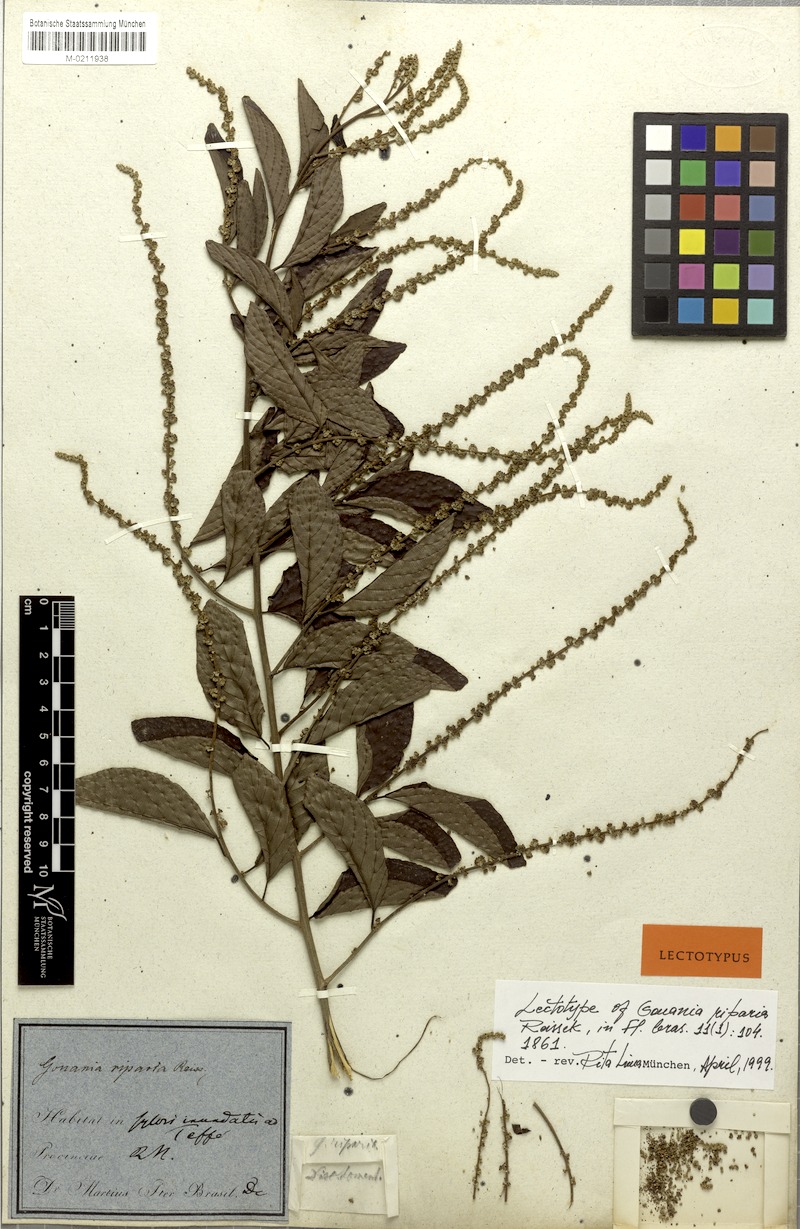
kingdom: Plantae
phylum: Tracheophyta
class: Magnoliopsida
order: Rosales
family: Rhamnaceae
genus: Gouania
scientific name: Gouania riparia
